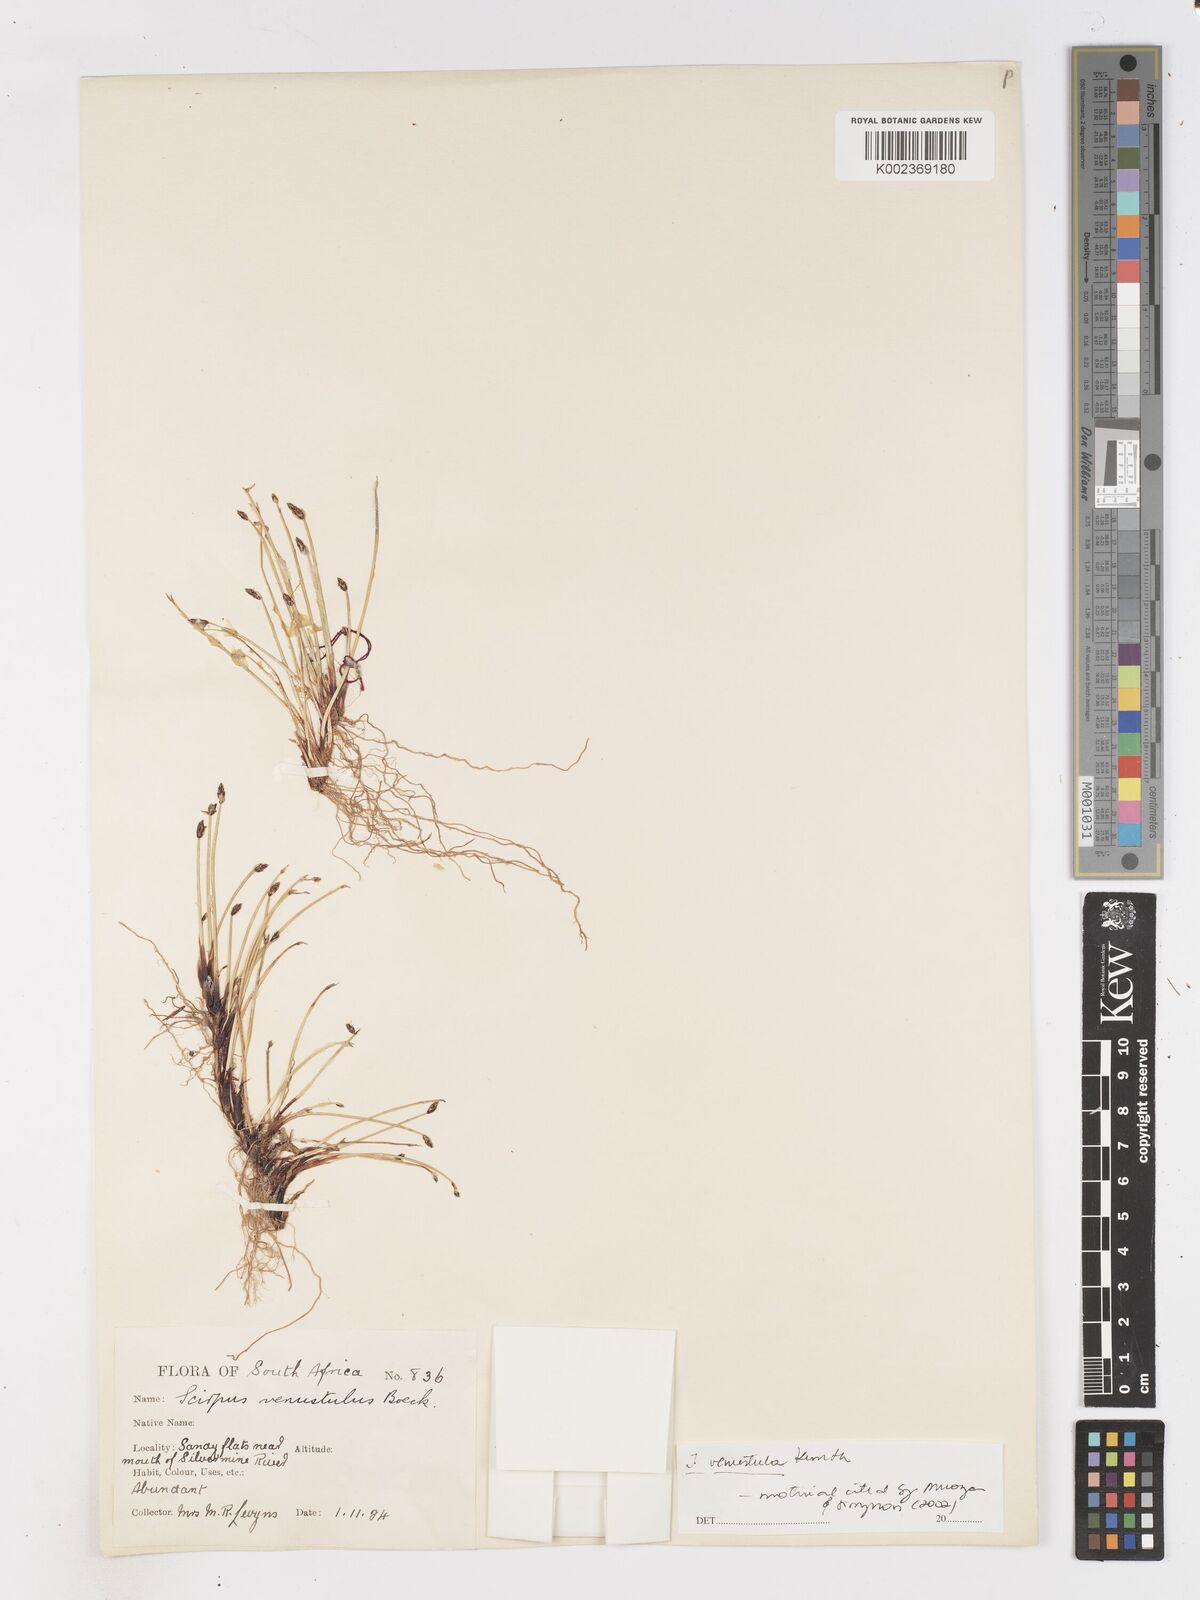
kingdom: Plantae
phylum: Tracheophyta
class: Liliopsida
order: Poales
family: Cyperaceae
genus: Isolepis
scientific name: Isolepis venustula
